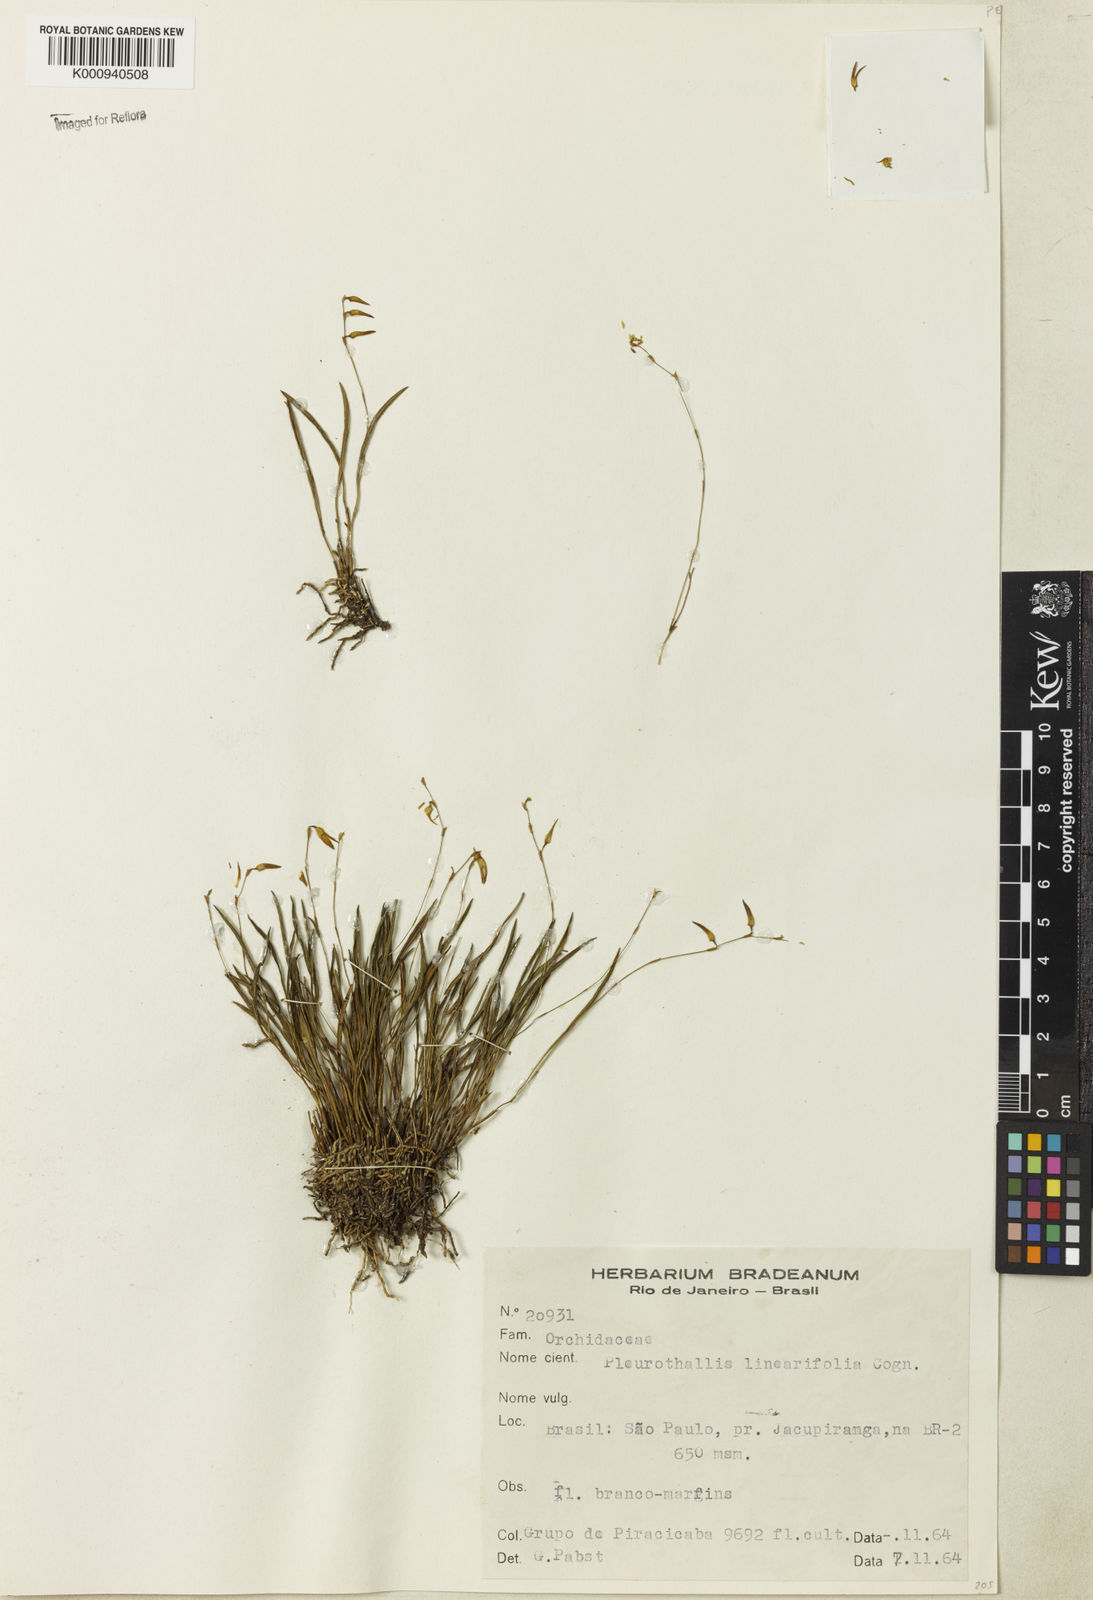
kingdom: Plantae
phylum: Tracheophyta
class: Liliopsida
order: Asparagales
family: Orchidaceae
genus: Anathallis
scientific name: Anathallis linearifolia
